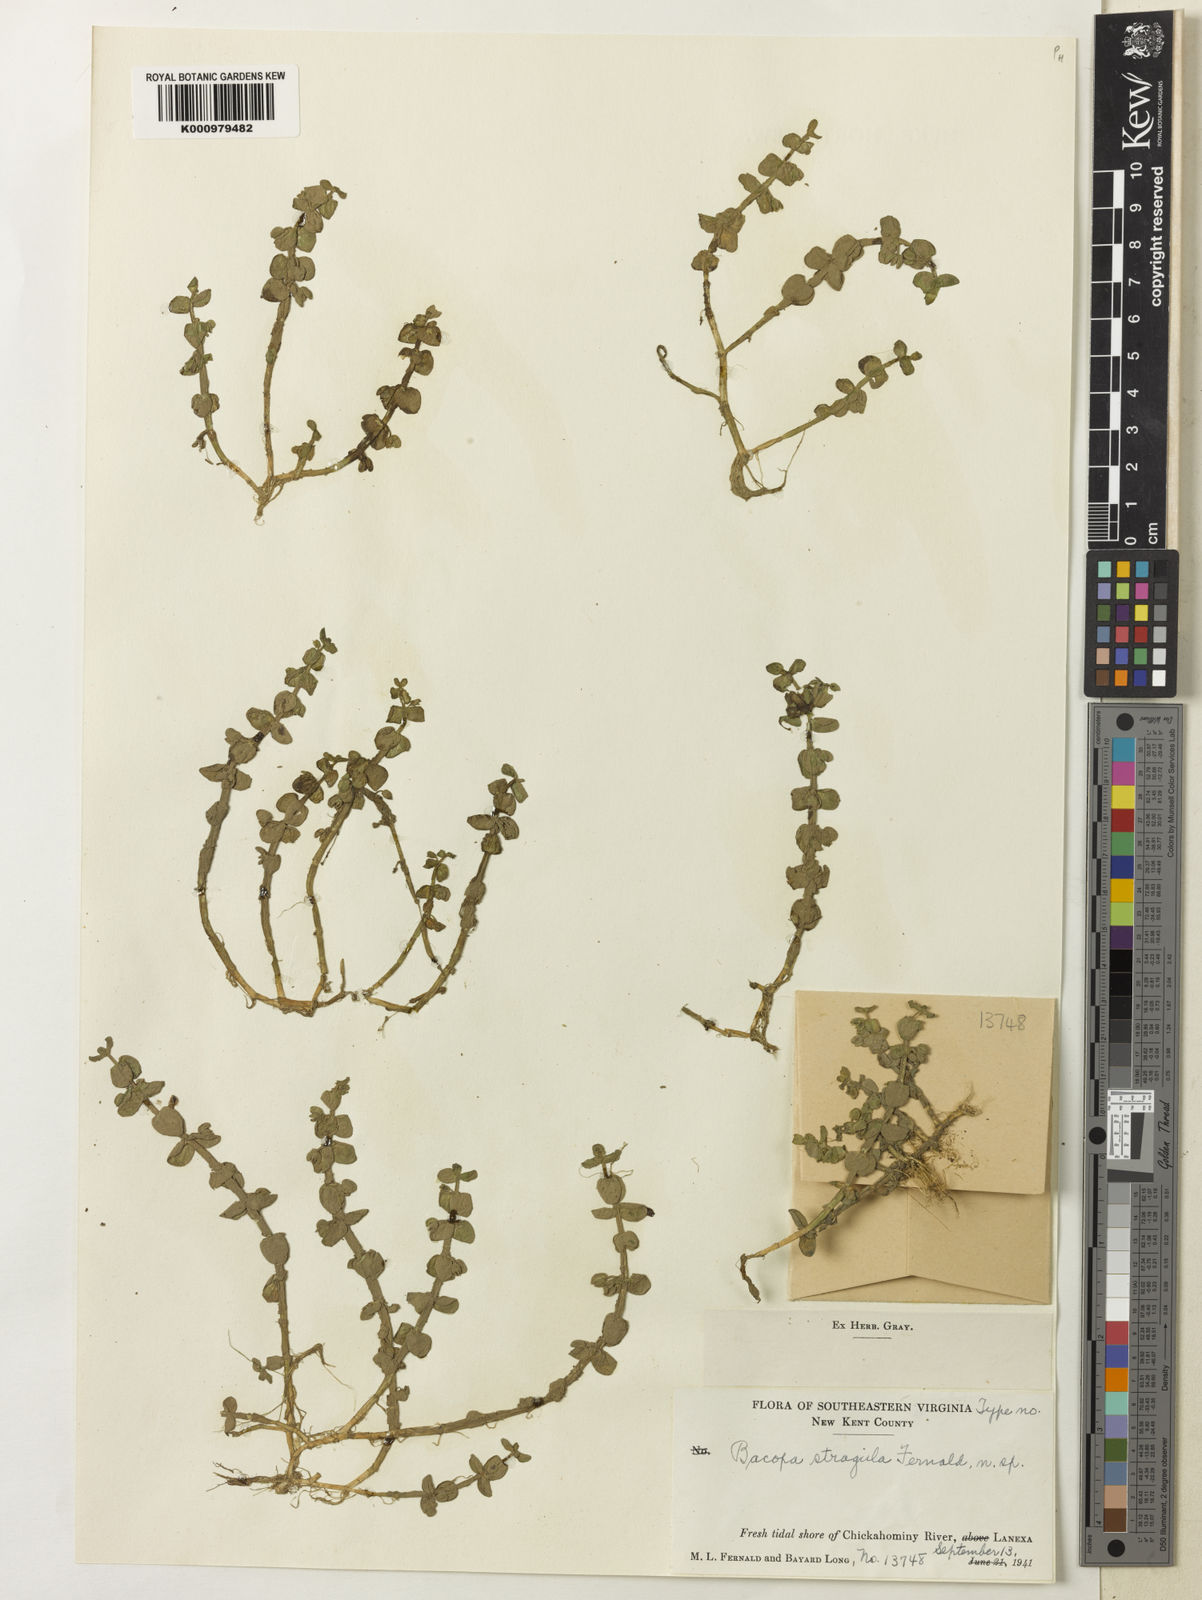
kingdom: Plantae
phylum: Tracheophyta
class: Magnoliopsida
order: Lamiales
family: Plantaginaceae
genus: Bacopa
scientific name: Bacopa caroliniana
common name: Lemon bacopa
